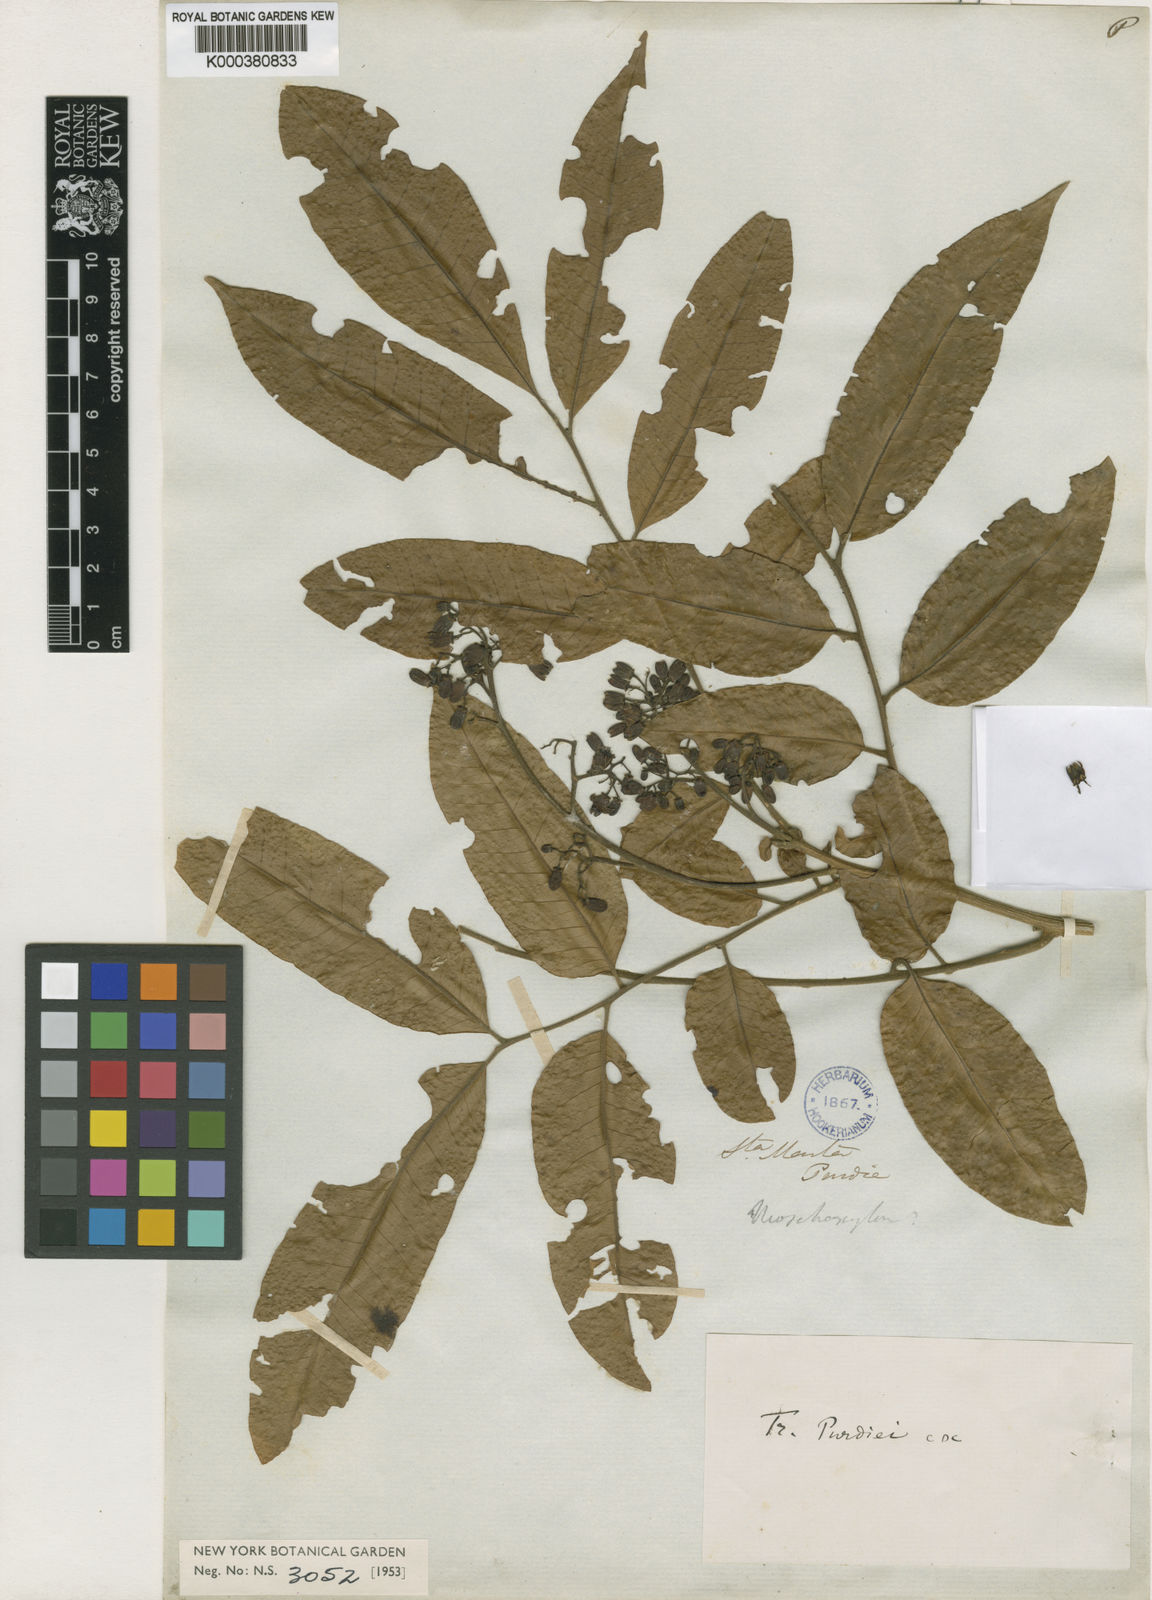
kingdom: Plantae
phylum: Tracheophyta
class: Magnoliopsida
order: Sapindales
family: Meliaceae
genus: Trichilia
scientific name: Trichilia appendiculata
